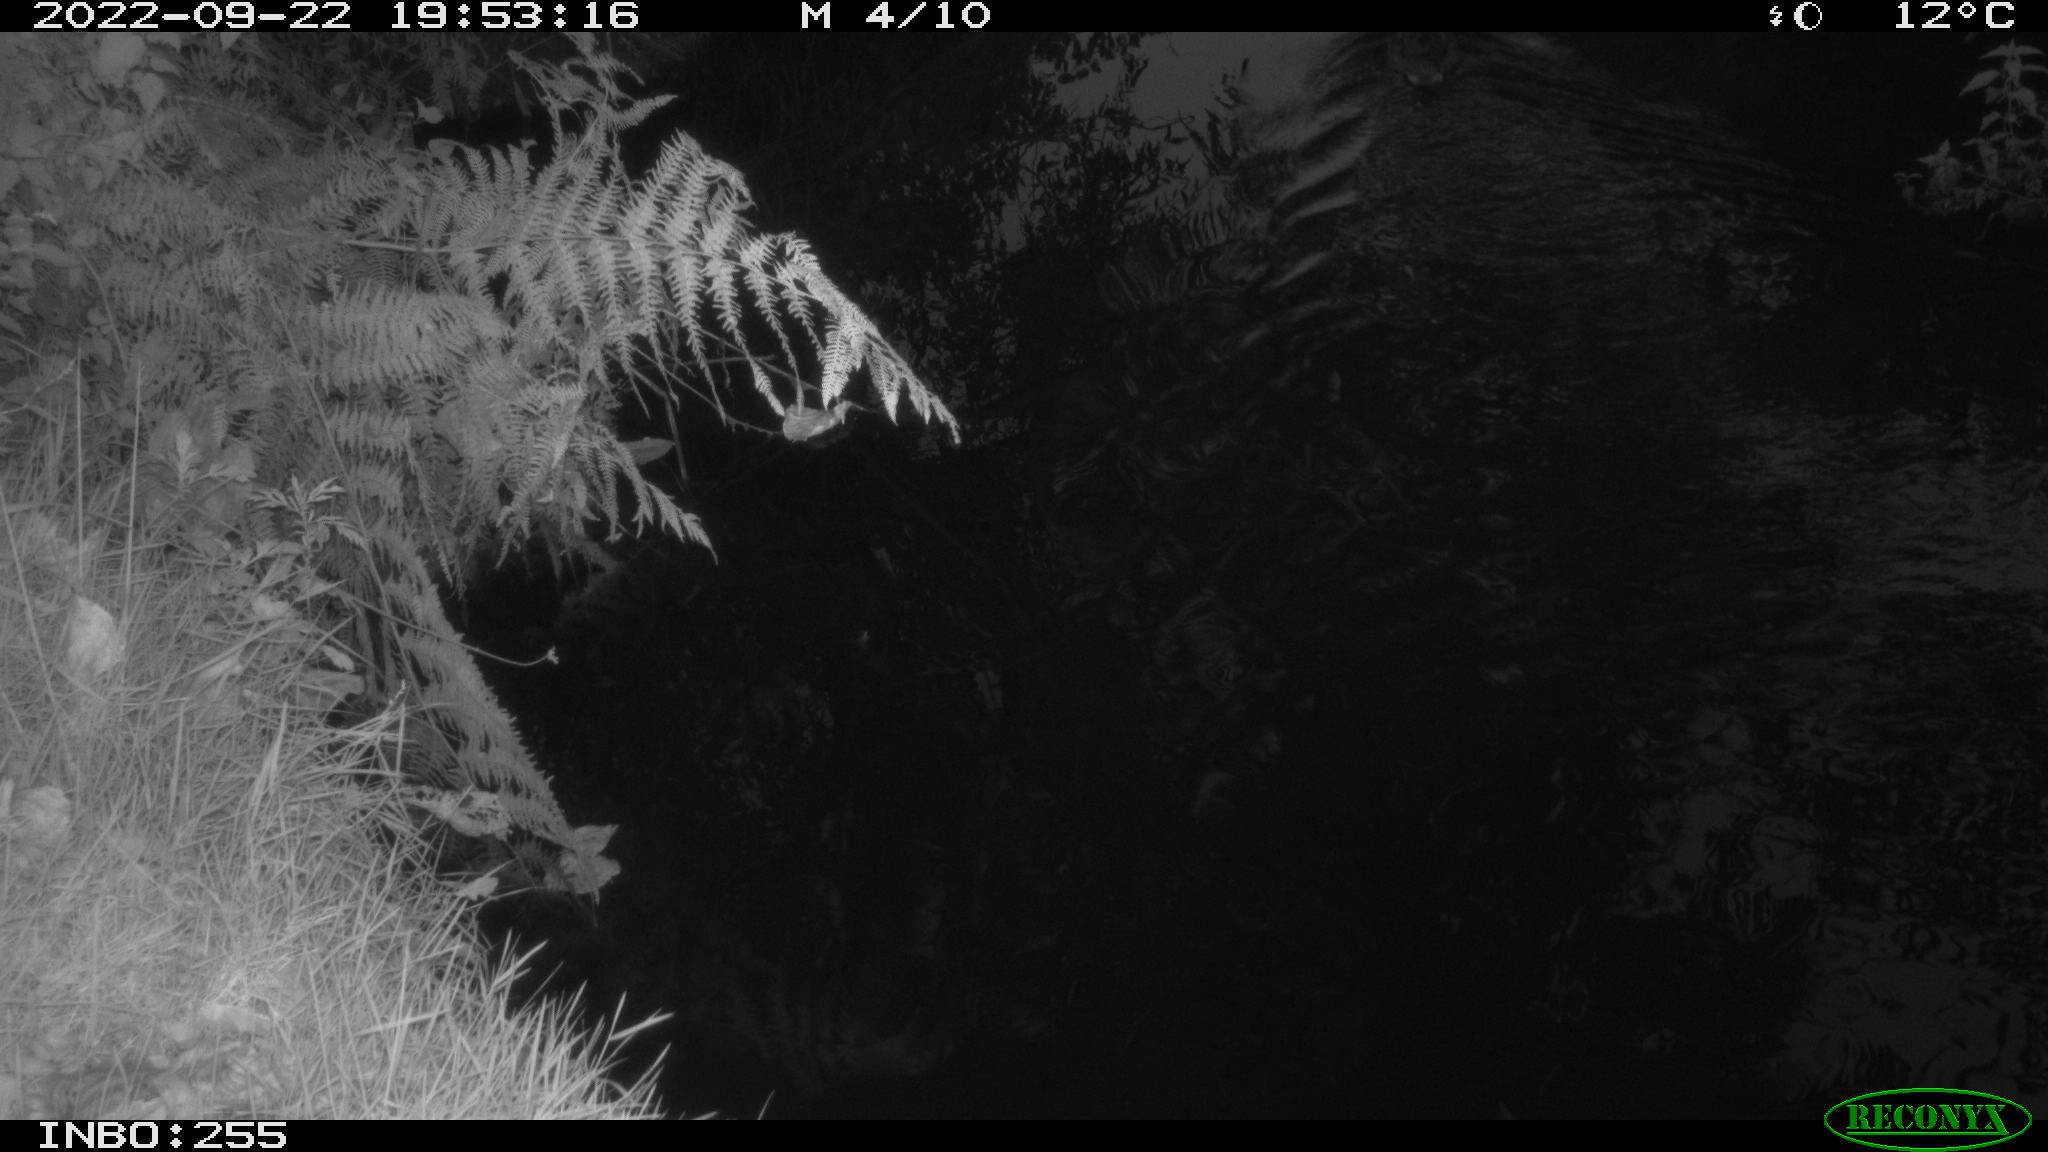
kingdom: Animalia
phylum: Chordata
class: Aves
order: Anseriformes
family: Anatidae
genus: Anas
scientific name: Anas platyrhynchos
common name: Mallard
